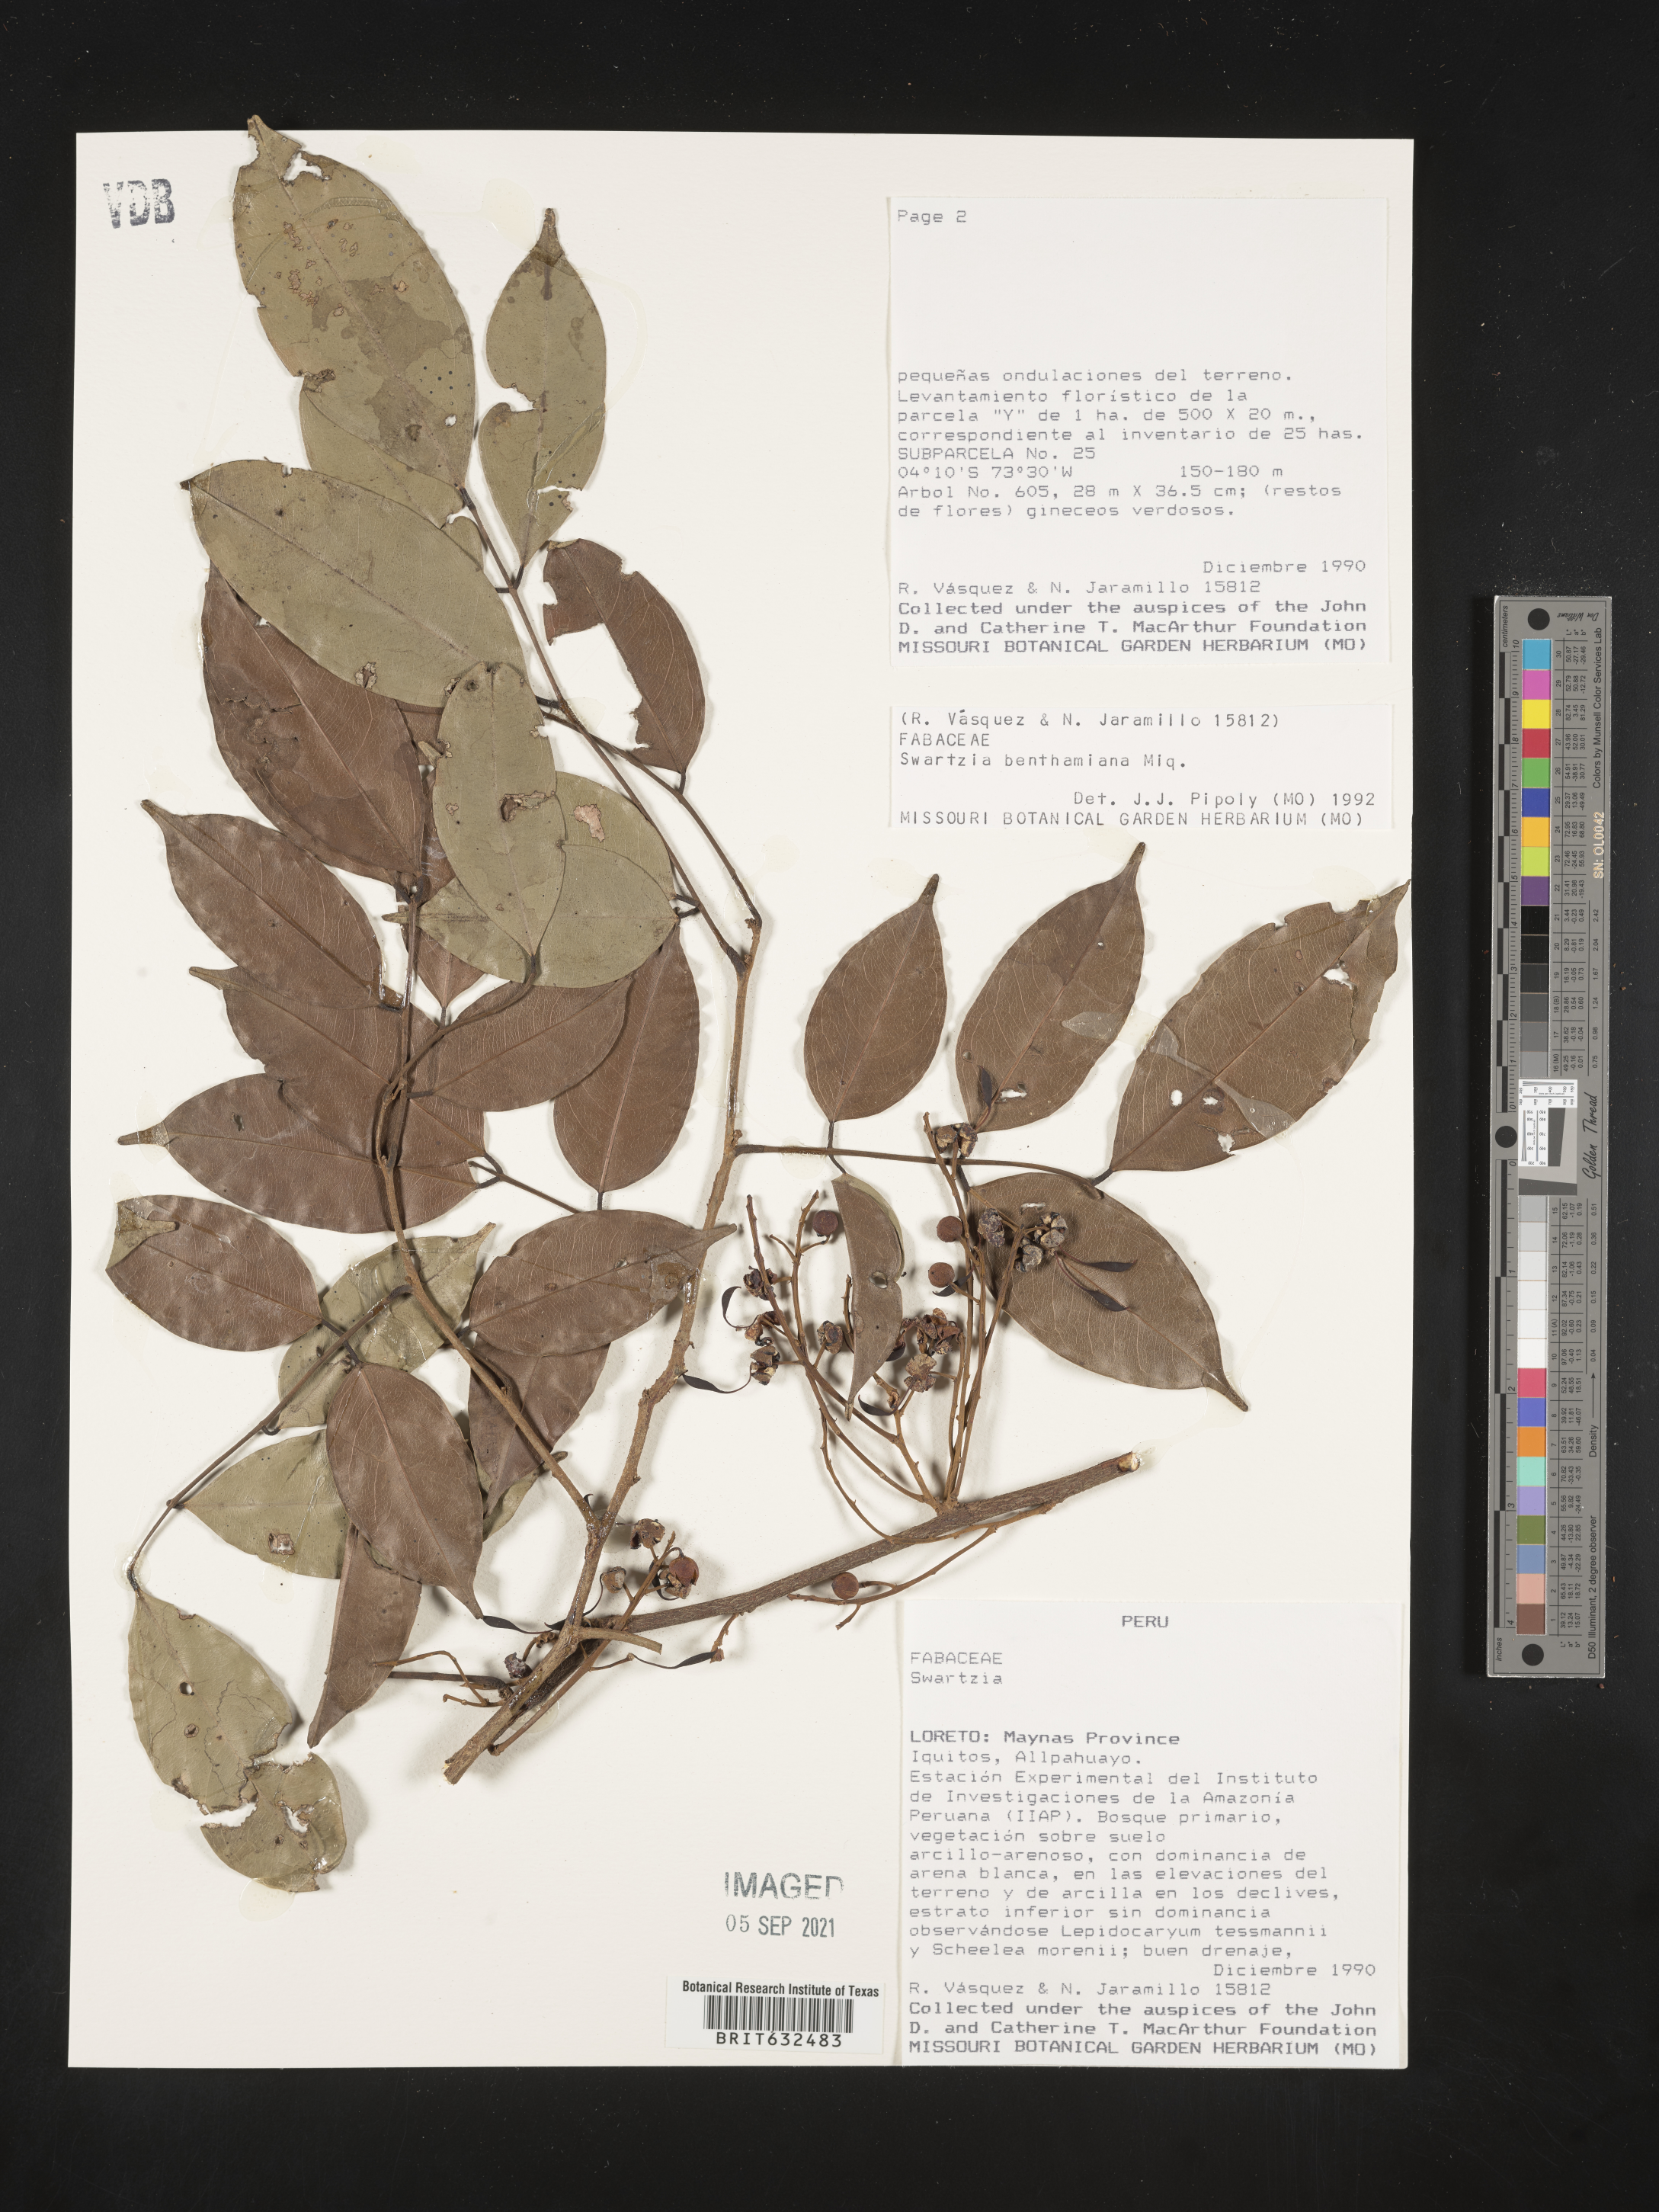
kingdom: Plantae
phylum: Tracheophyta
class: Magnoliopsida
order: Fabales
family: Fabaceae
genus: Swartzia
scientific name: Swartzia
